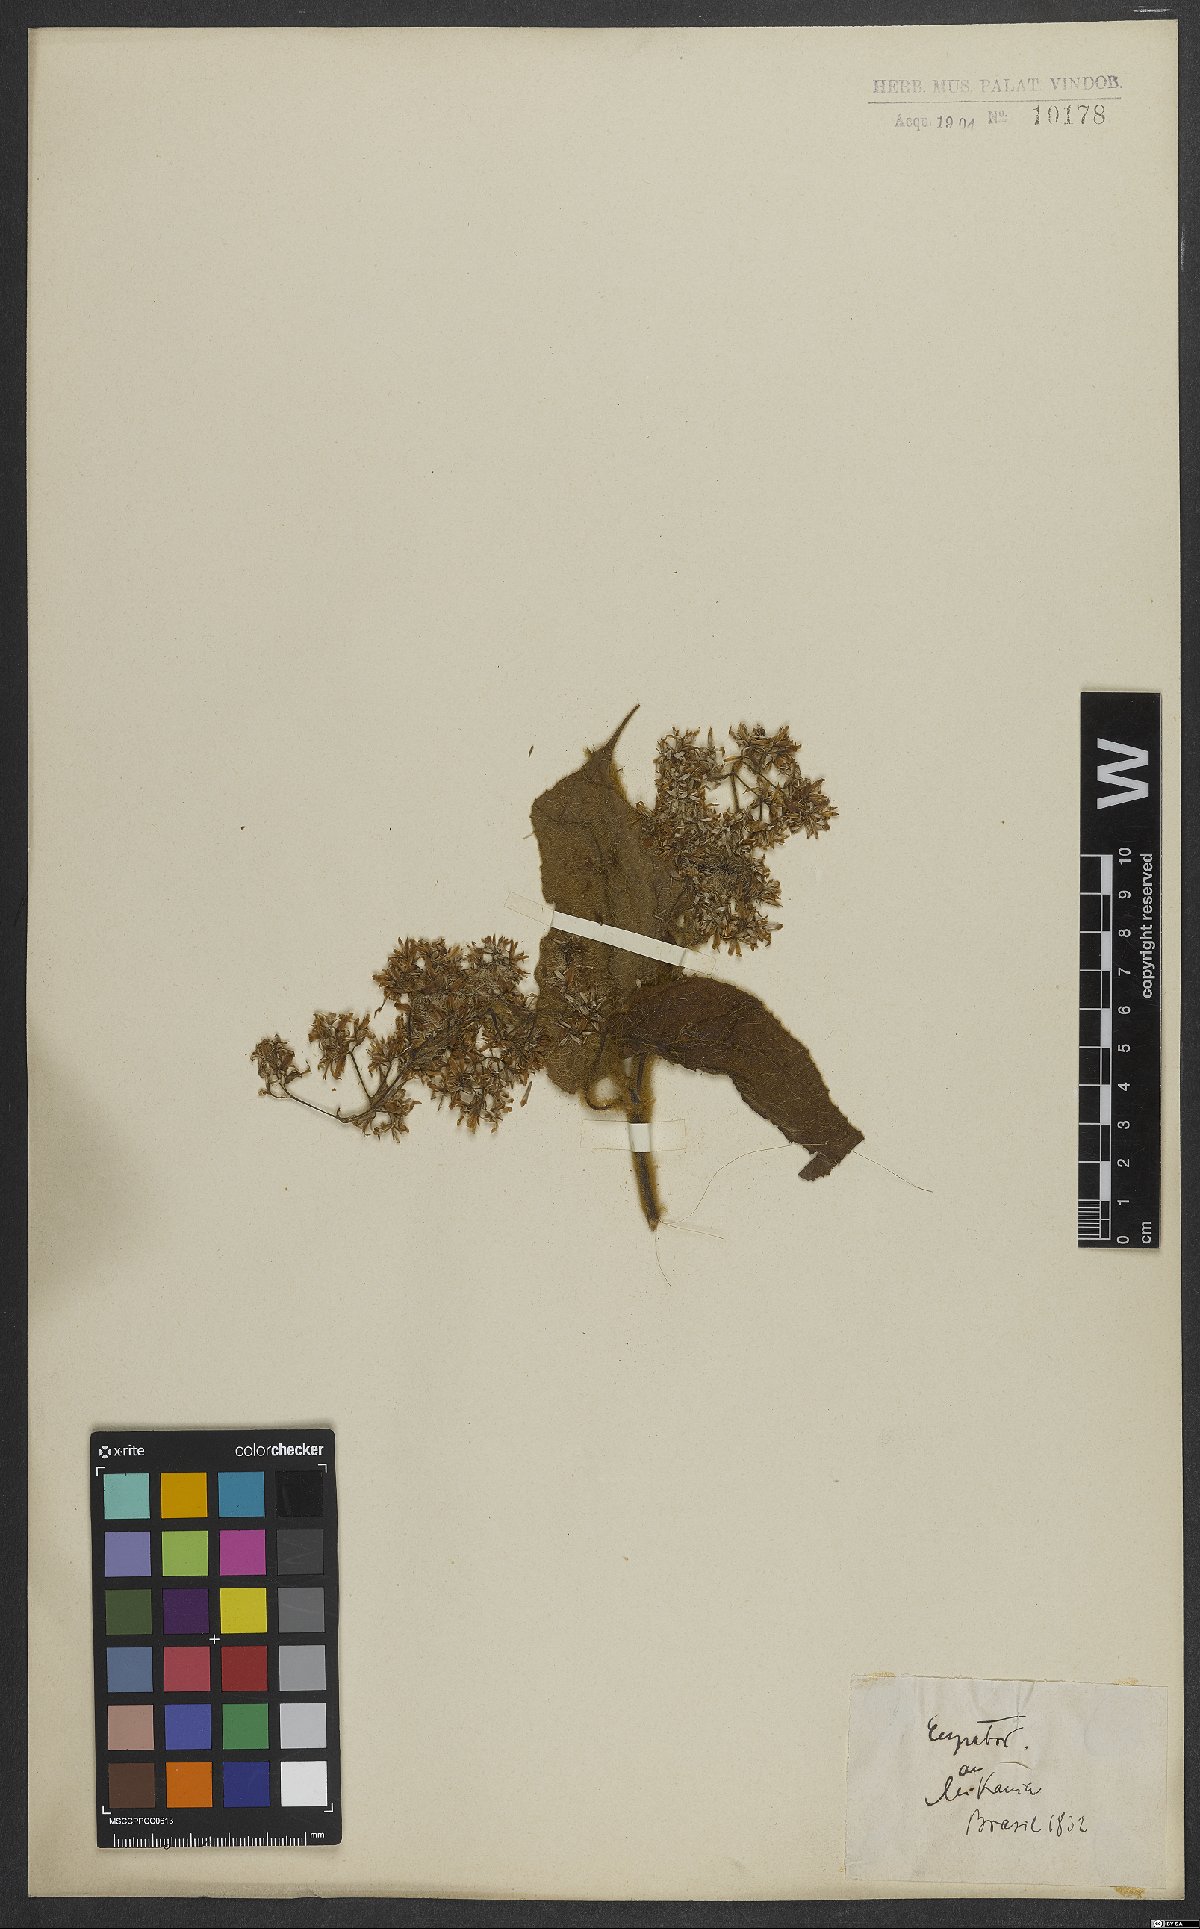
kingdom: Plantae
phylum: Tracheophyta
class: Magnoliopsida
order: Asterales
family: Asteraceae
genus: Eupatorium
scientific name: Eupatorium
